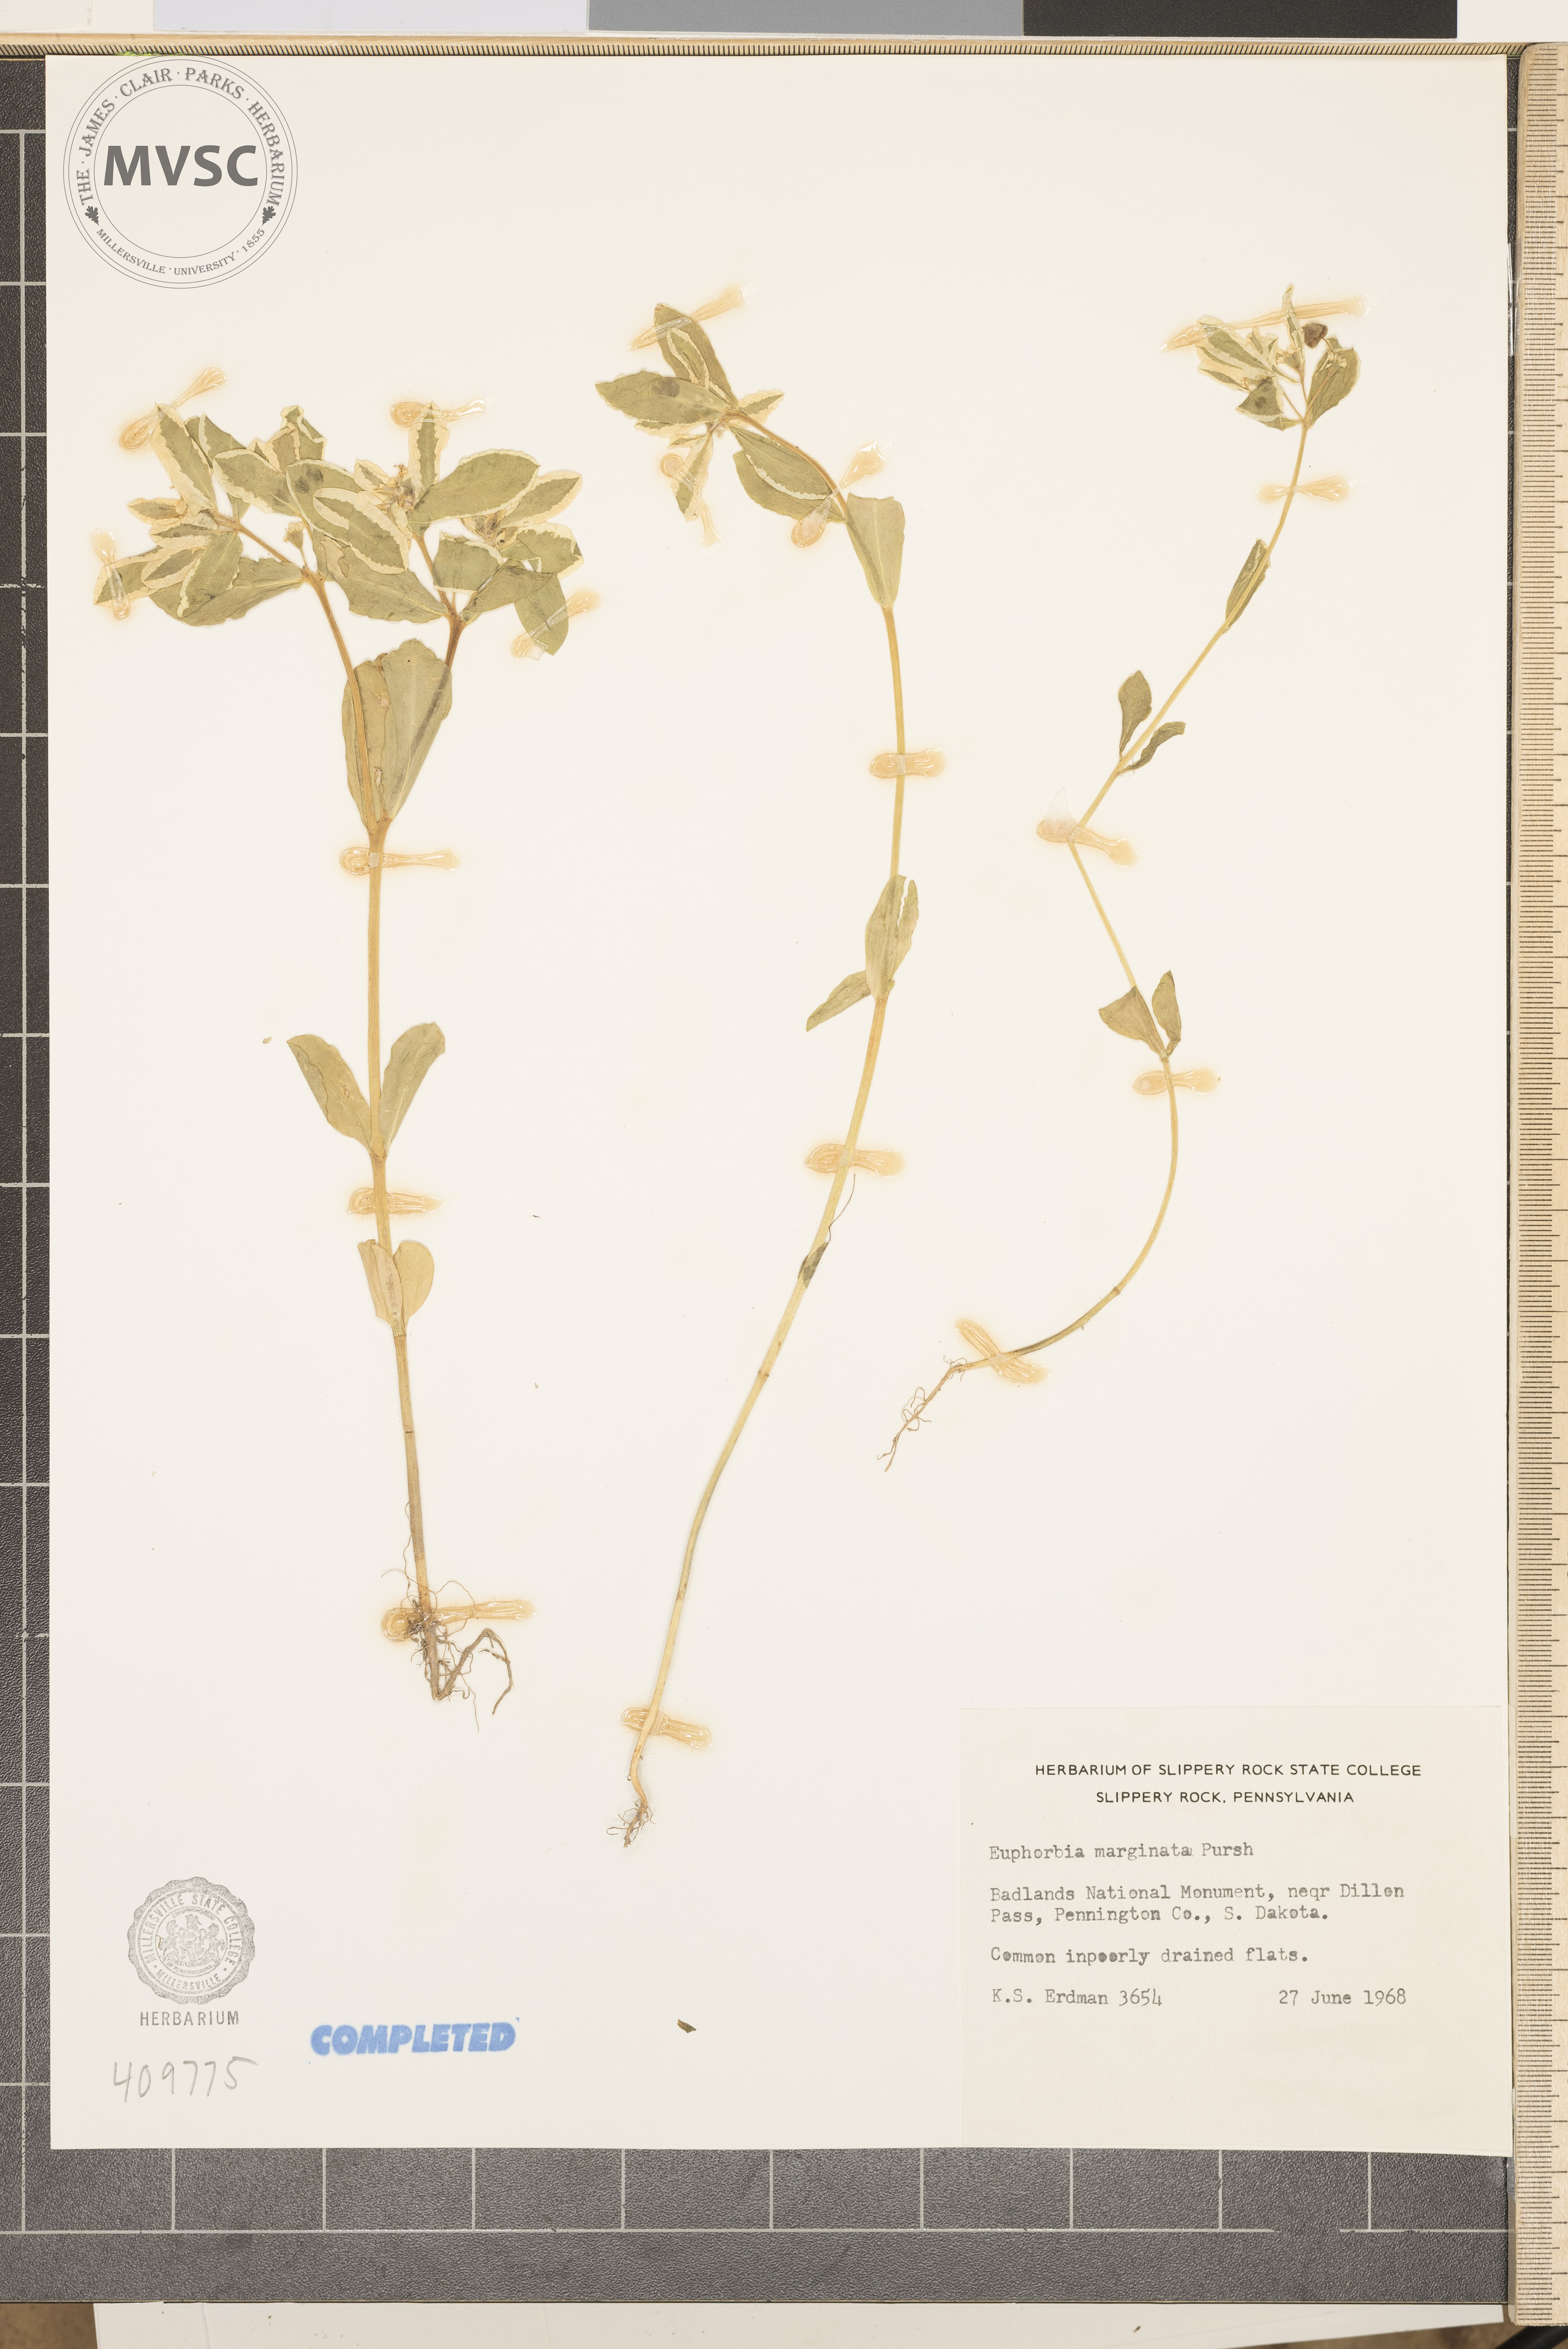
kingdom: Plantae
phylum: Tracheophyta
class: Magnoliopsida
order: Malpighiales
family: Euphorbiaceae
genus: Euphorbia
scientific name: Euphorbia marginata
